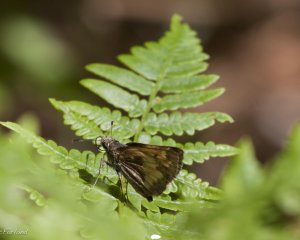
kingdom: Animalia
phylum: Arthropoda
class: Insecta
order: Lepidoptera
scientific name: Lepidoptera
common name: Butterflies
